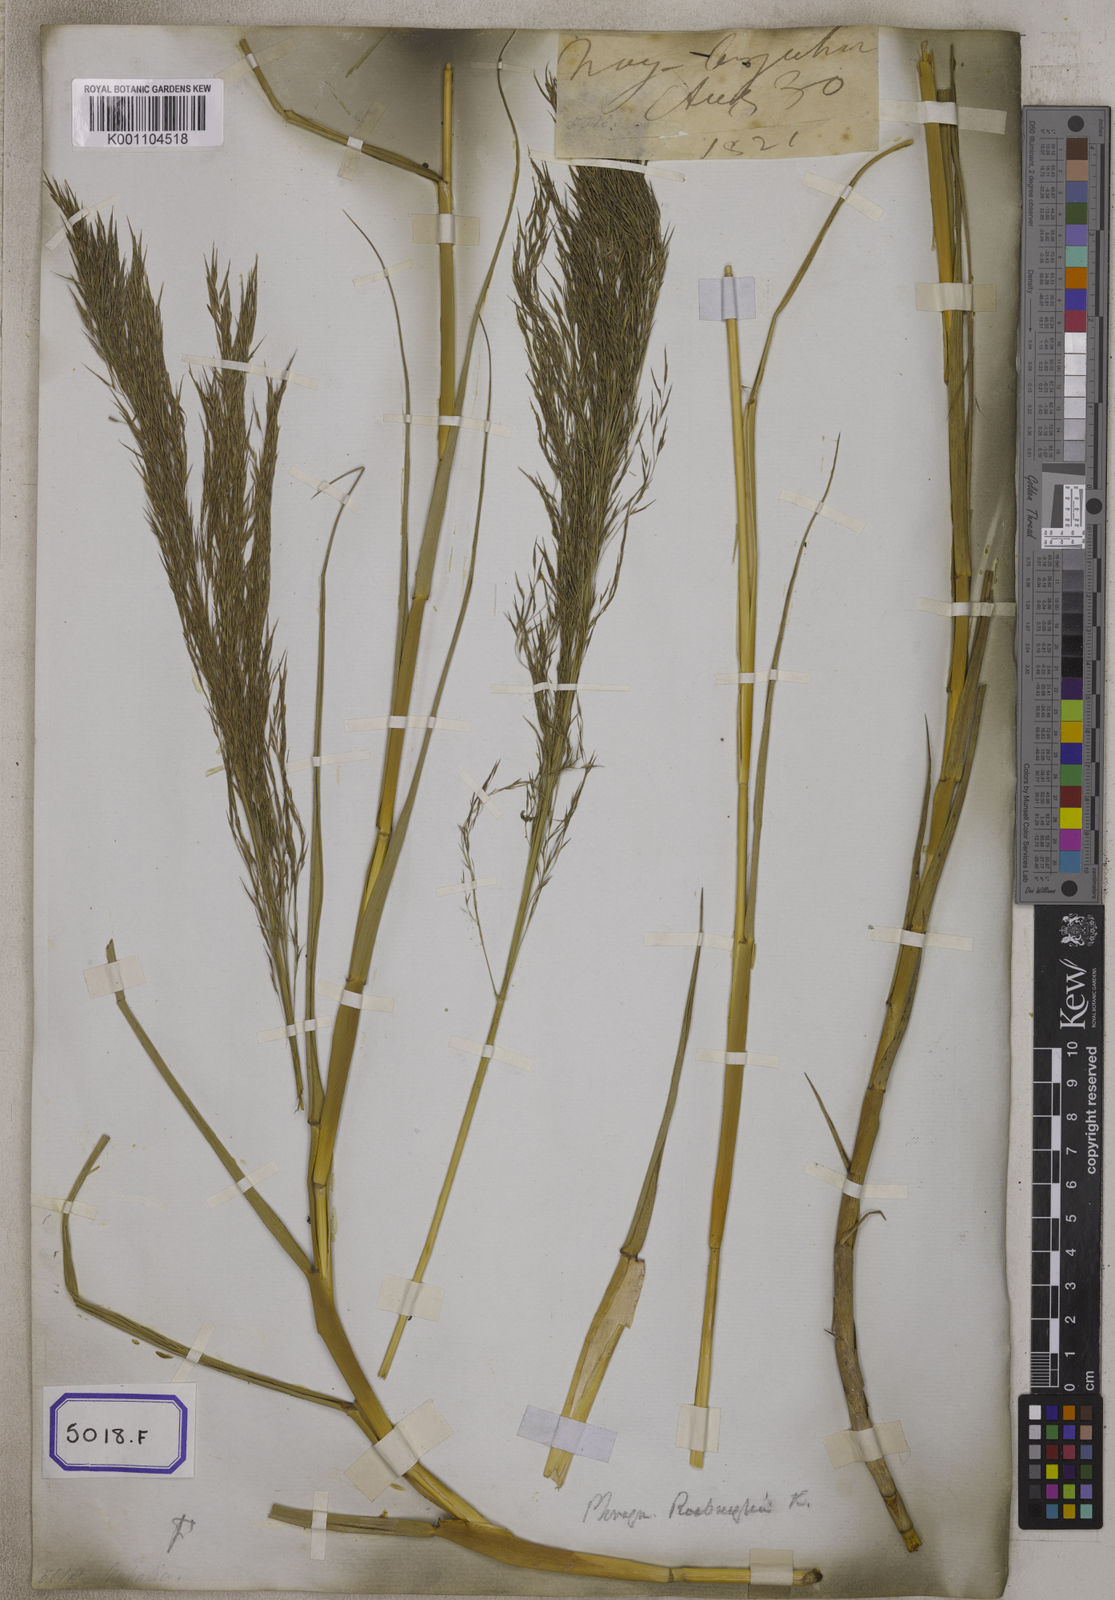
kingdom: Plantae
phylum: Tracheophyta
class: Liliopsida
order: Poales
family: Poaceae
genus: Arundo
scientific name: Arundo
